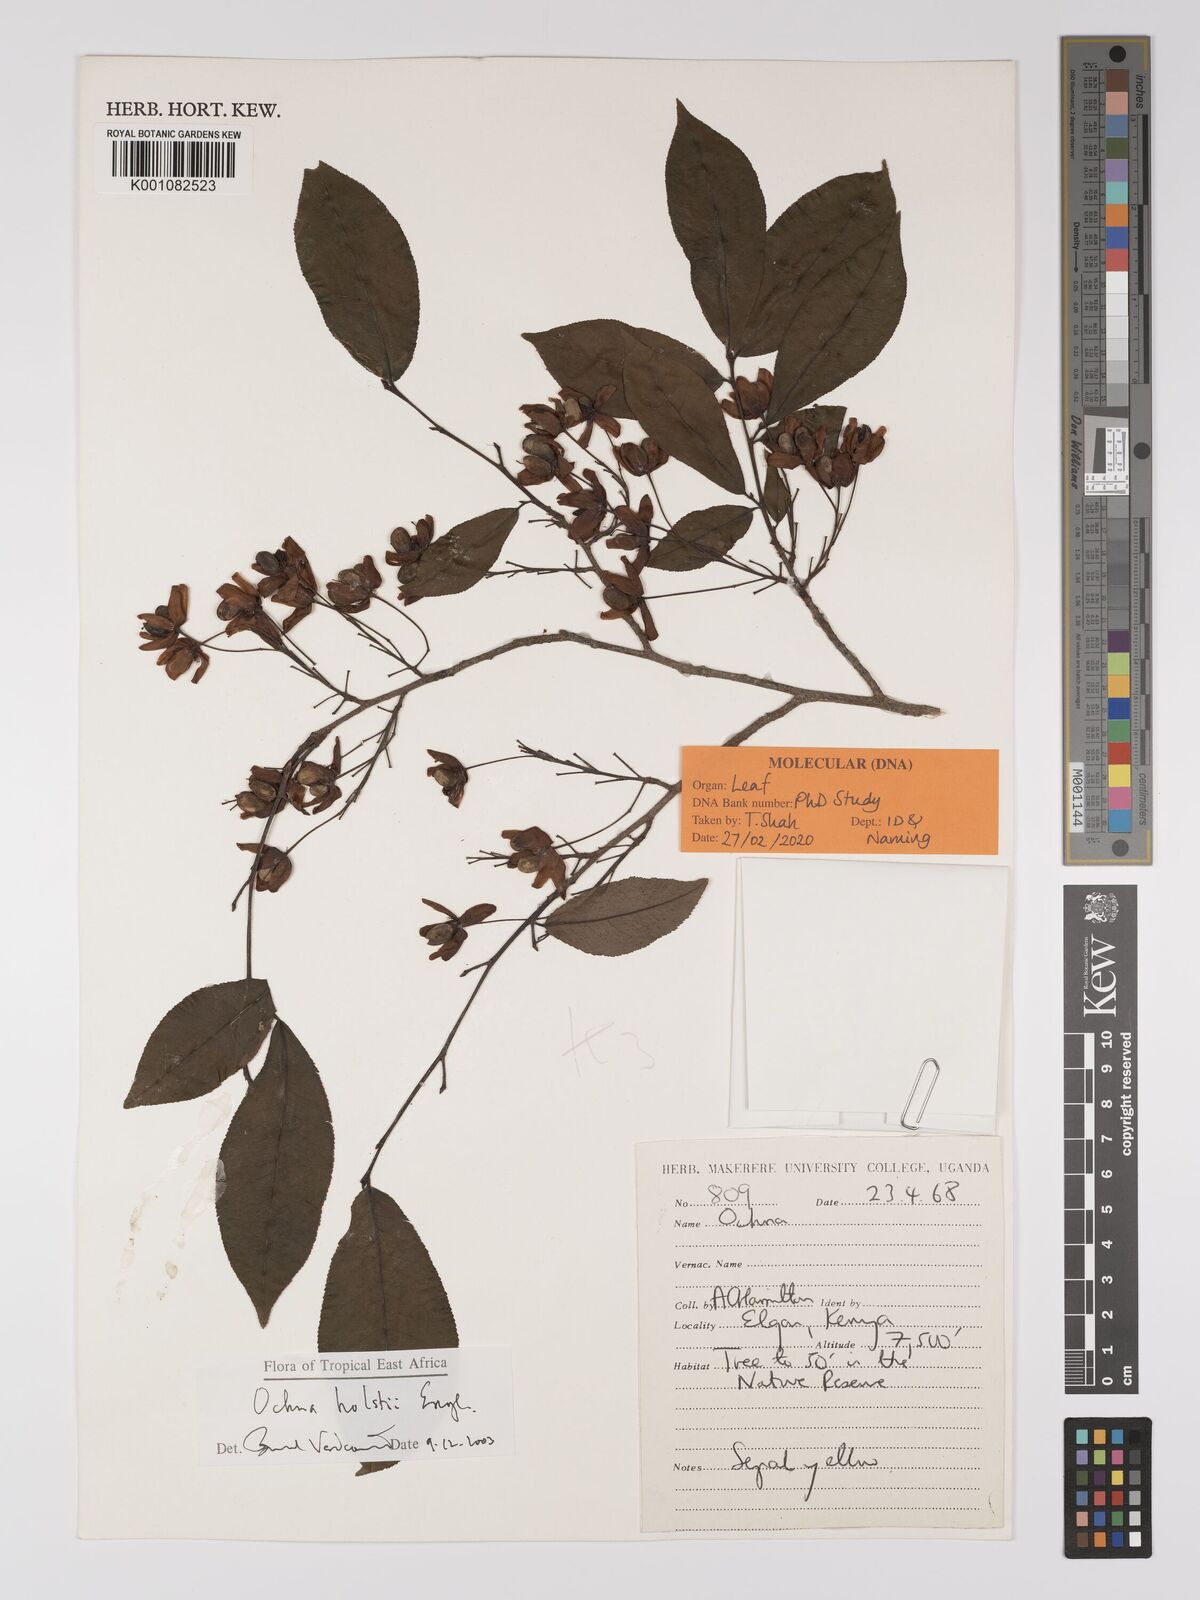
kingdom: Plantae
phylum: Tracheophyta
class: Magnoliopsida
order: Malpighiales
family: Ochnaceae
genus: Ochna
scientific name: Ochna holstii
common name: Red ironwood
